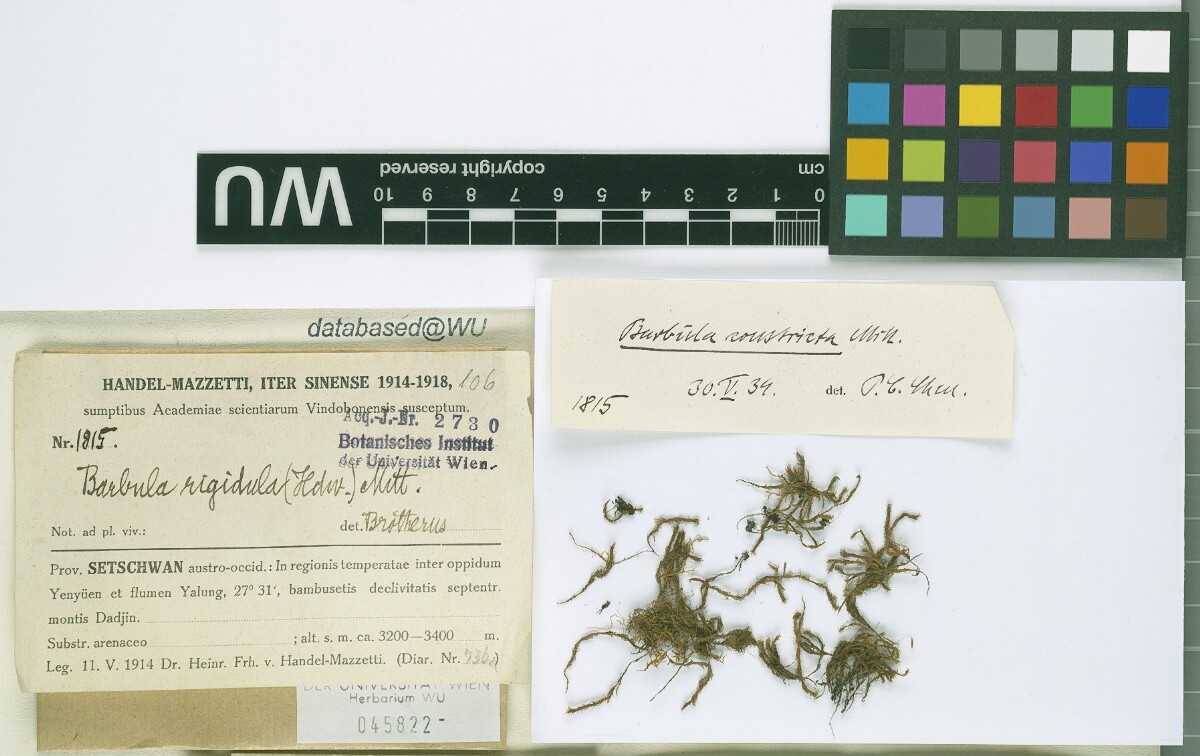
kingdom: Plantae
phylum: Bryophyta
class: Bryopsida
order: Pottiales
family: Pottiaceae
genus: Didymodon
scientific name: Didymodon constrictus
